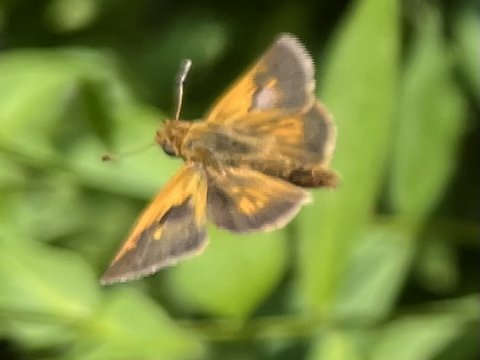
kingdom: Animalia
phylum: Arthropoda
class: Insecta
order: Lepidoptera
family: Hesperiidae
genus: Polites
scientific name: Polites coras
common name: Peck's Skipper
